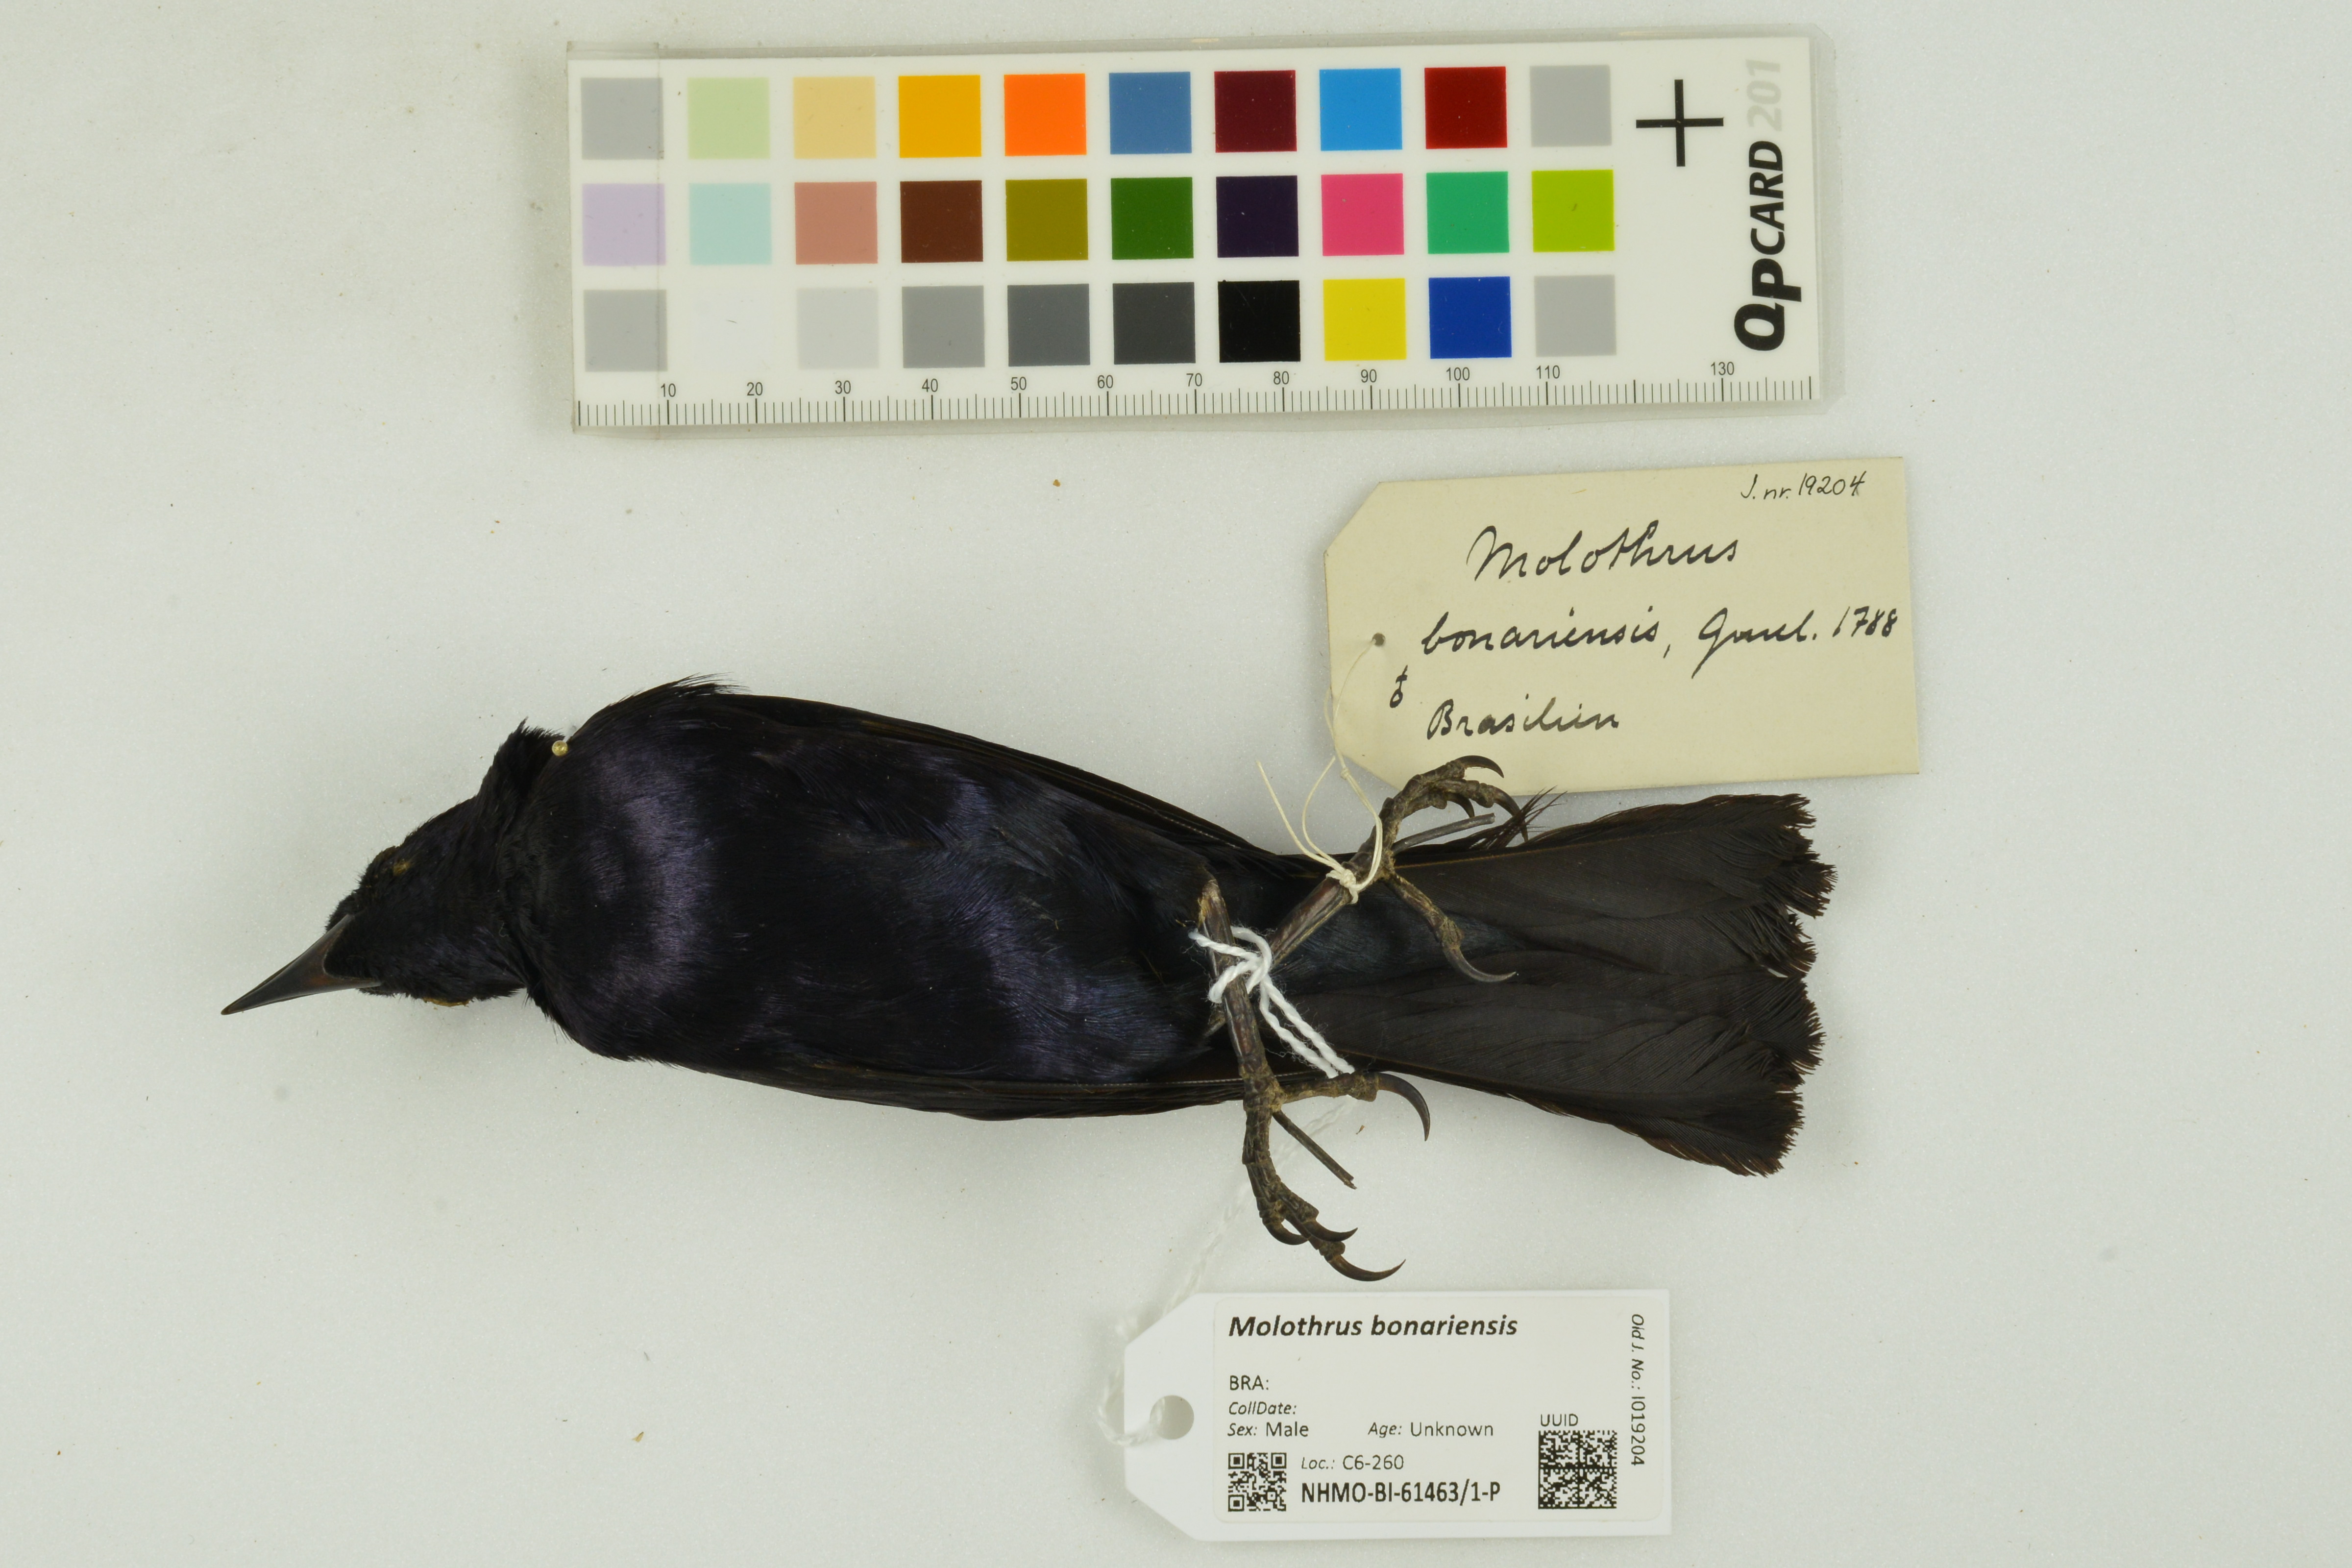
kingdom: Animalia
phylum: Chordata
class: Aves
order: Passeriformes
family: Icteridae
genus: Molothrus
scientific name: Molothrus bonariensis
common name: Shiny cowbird
